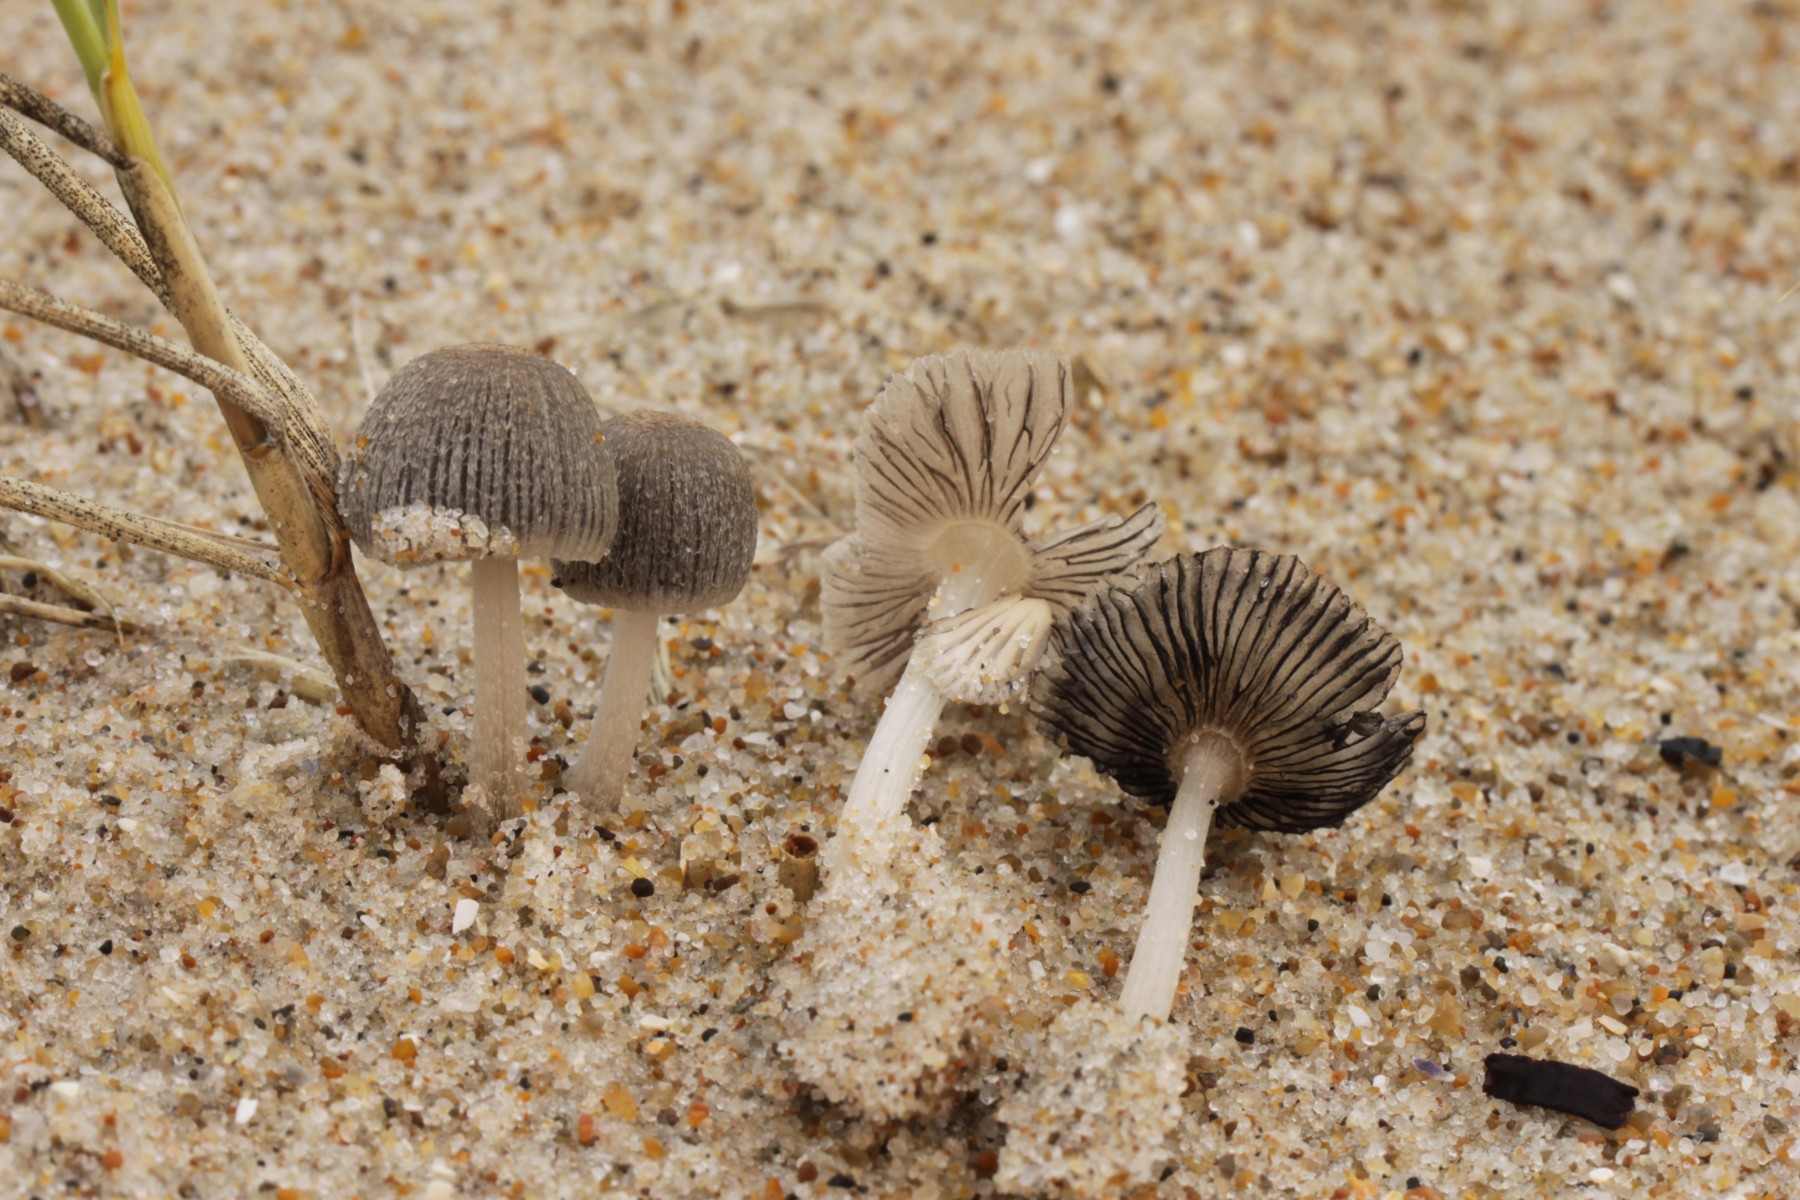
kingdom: Fungi
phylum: Basidiomycota
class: Agaricomycetes
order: Agaricales
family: Psathyrellaceae
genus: Coprinopsis
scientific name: Coprinopsis ammophilae
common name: hjelme-blækhat
